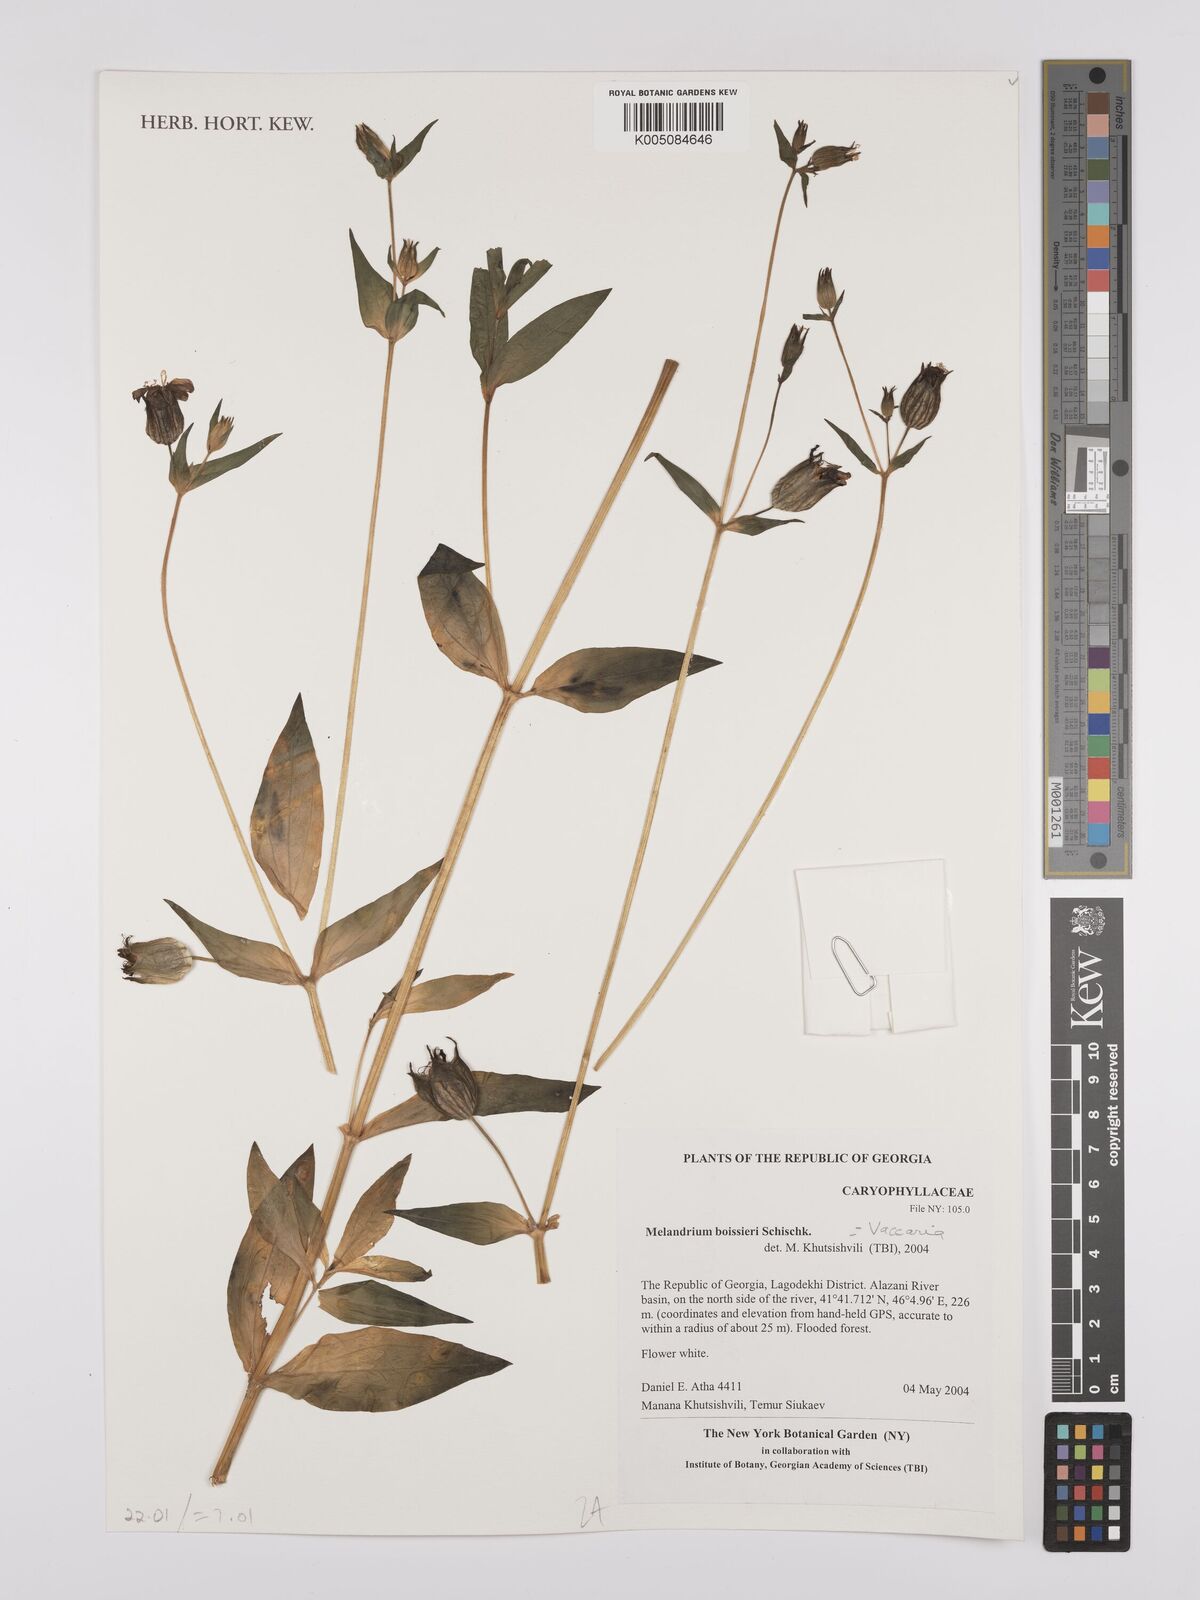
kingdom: Plantae
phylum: Tracheophyta
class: Magnoliopsida
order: Caryophyllales
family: Caryophyllaceae
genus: Silene
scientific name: Silene latifolia
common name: White campion
